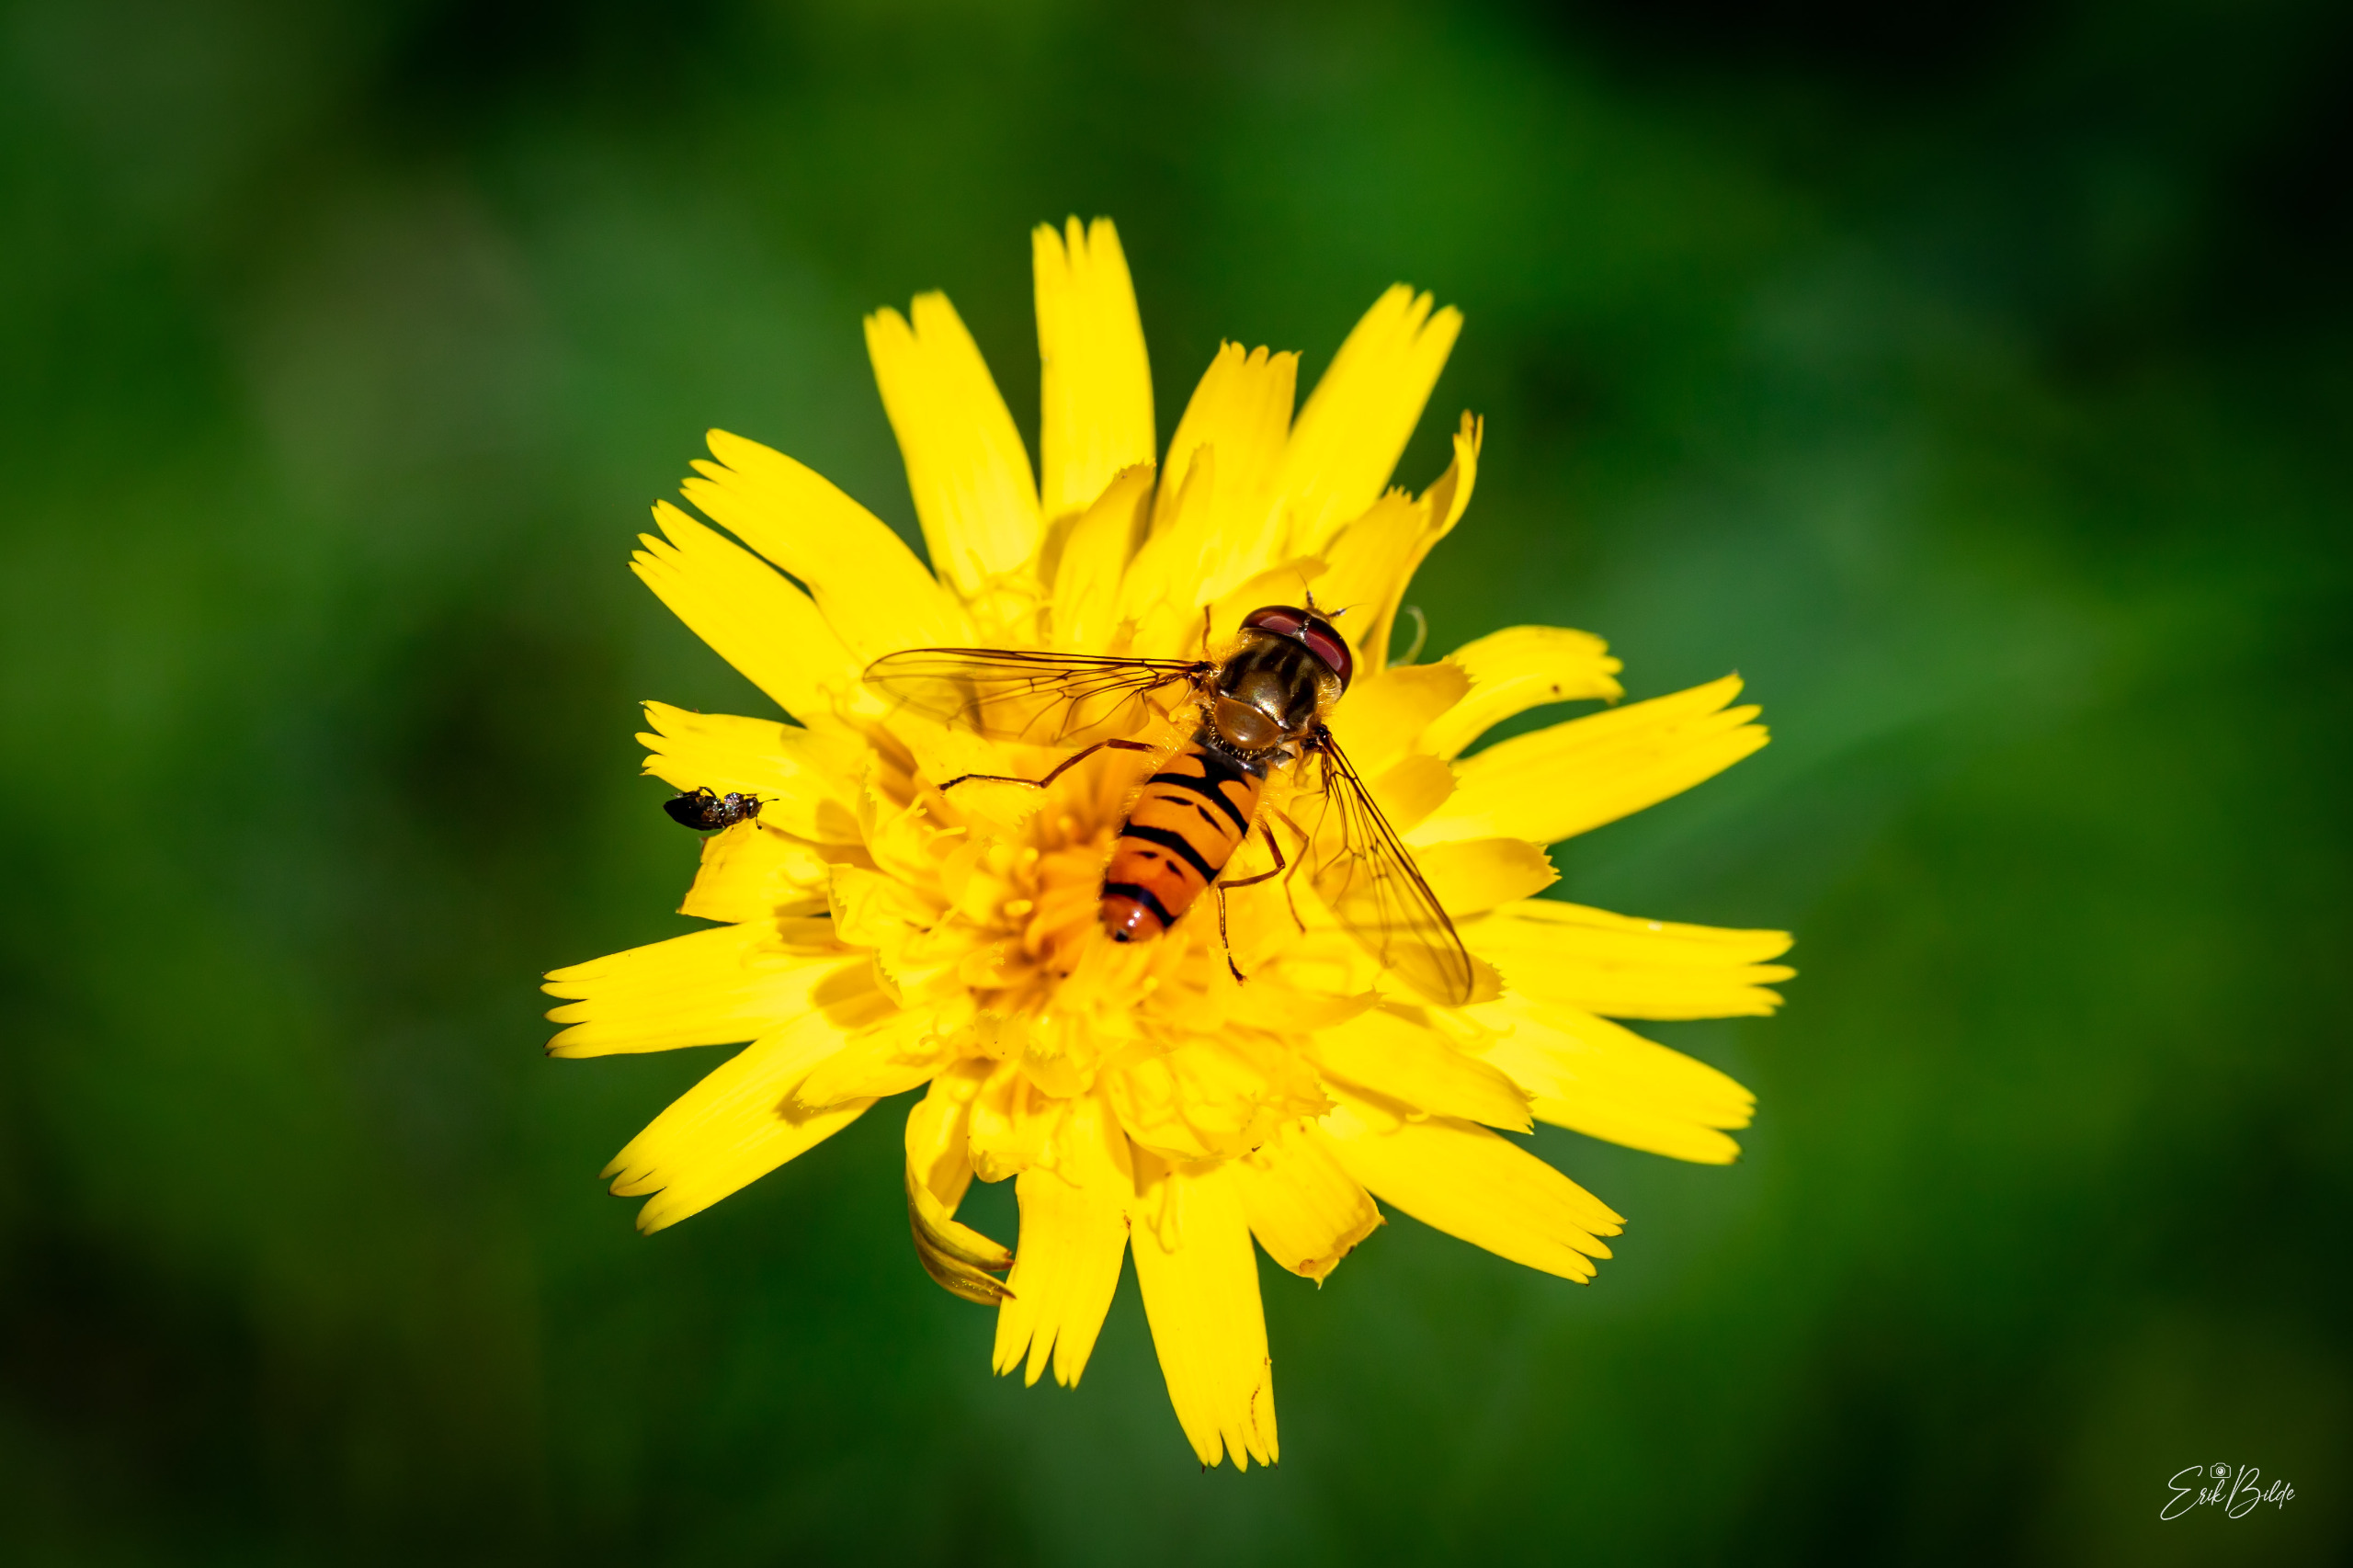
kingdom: Animalia
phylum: Arthropoda
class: Insecta
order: Diptera
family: Syrphidae
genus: Episyrphus
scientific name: Episyrphus balteatus
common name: Dobbeltbåndet svirreflue
